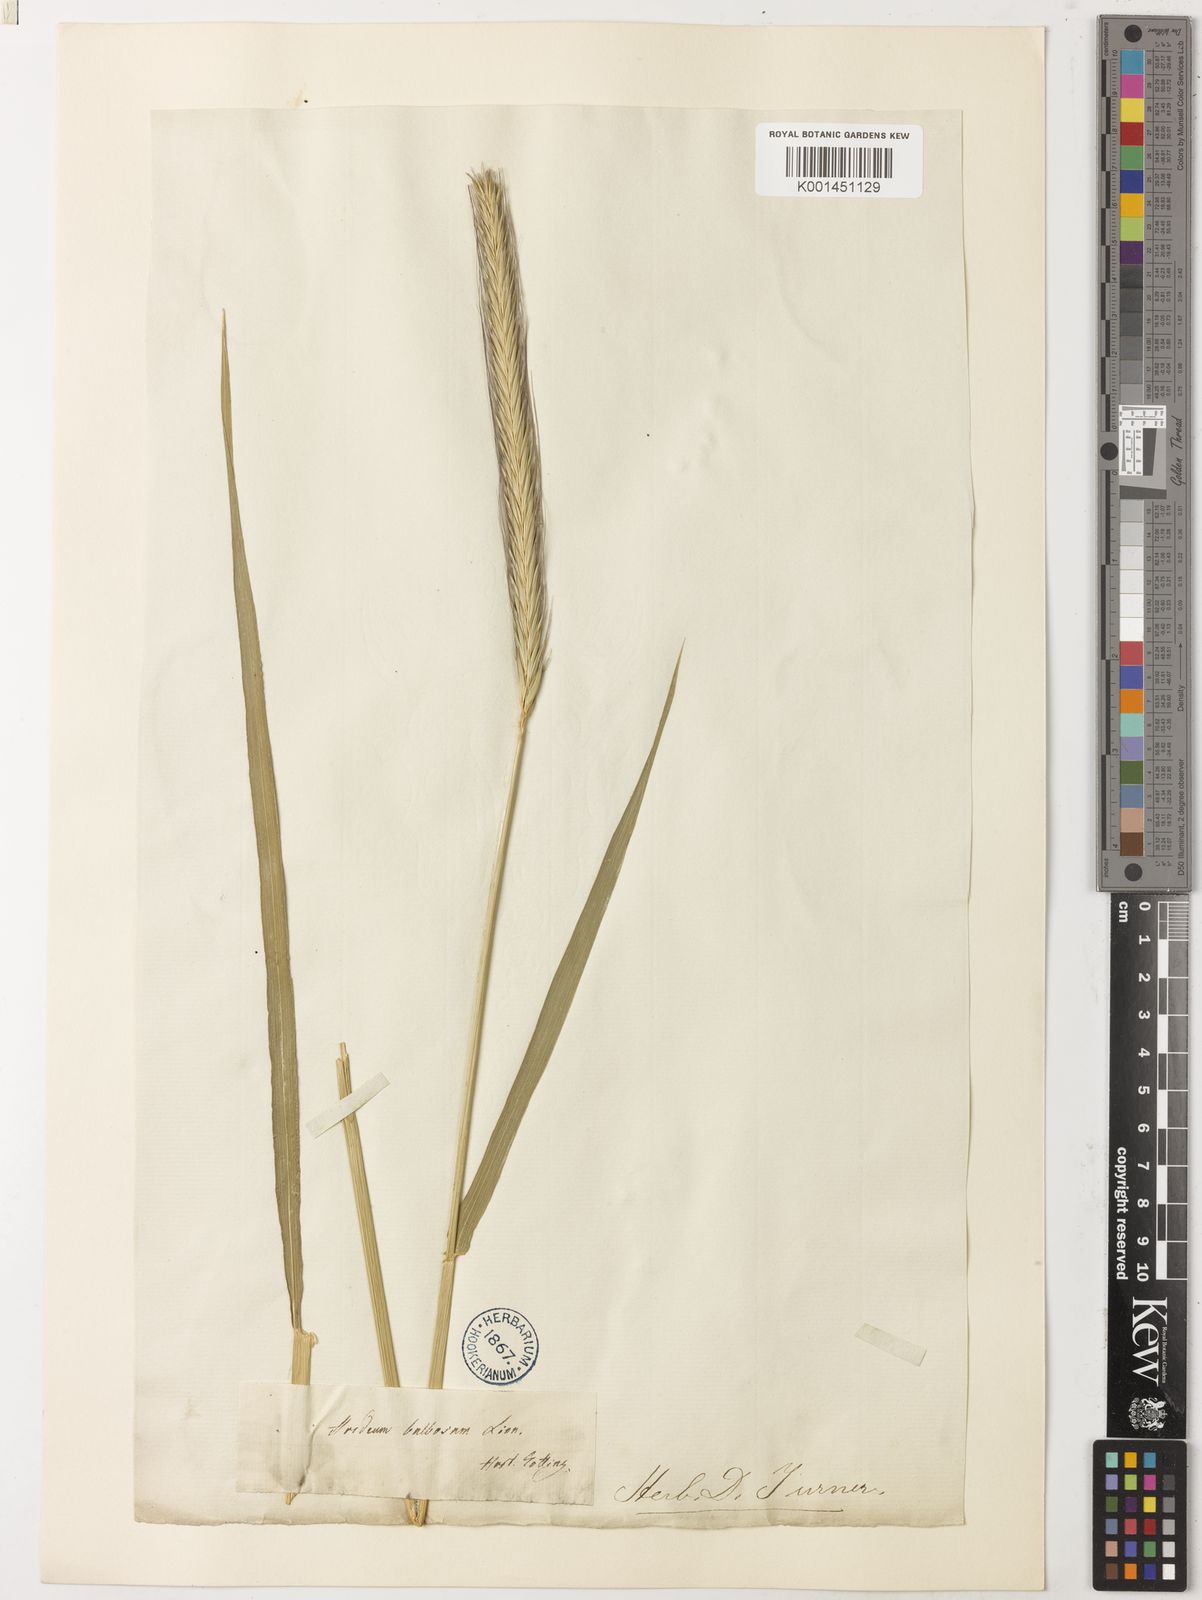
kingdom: Plantae
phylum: Tracheophyta
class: Liliopsida
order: Poales
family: Poaceae
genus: Hordeum
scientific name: Hordeum bulbosum
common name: Bulbous barley
